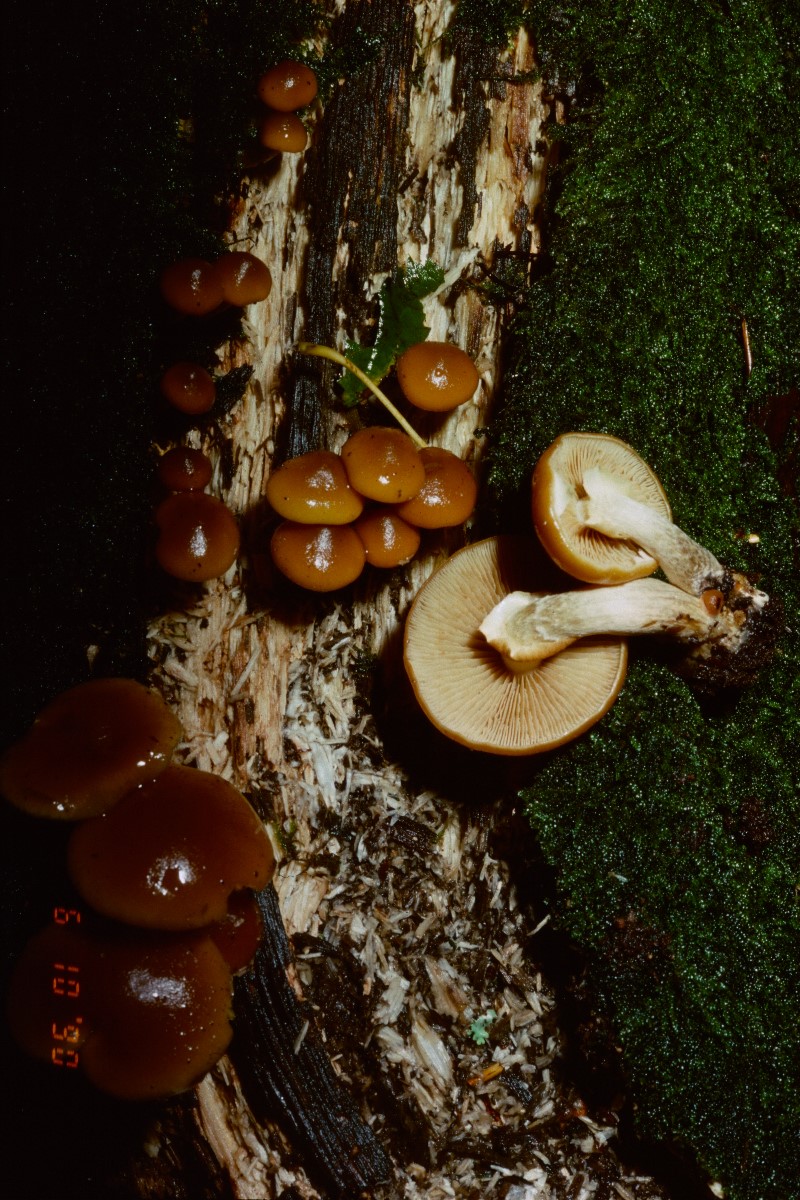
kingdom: Fungi
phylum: Basidiomycota
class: Agaricomycetes
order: Agaricales
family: Hymenogastraceae
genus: Galerina
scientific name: Galerina marginata
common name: randbæltet hjelmhat
